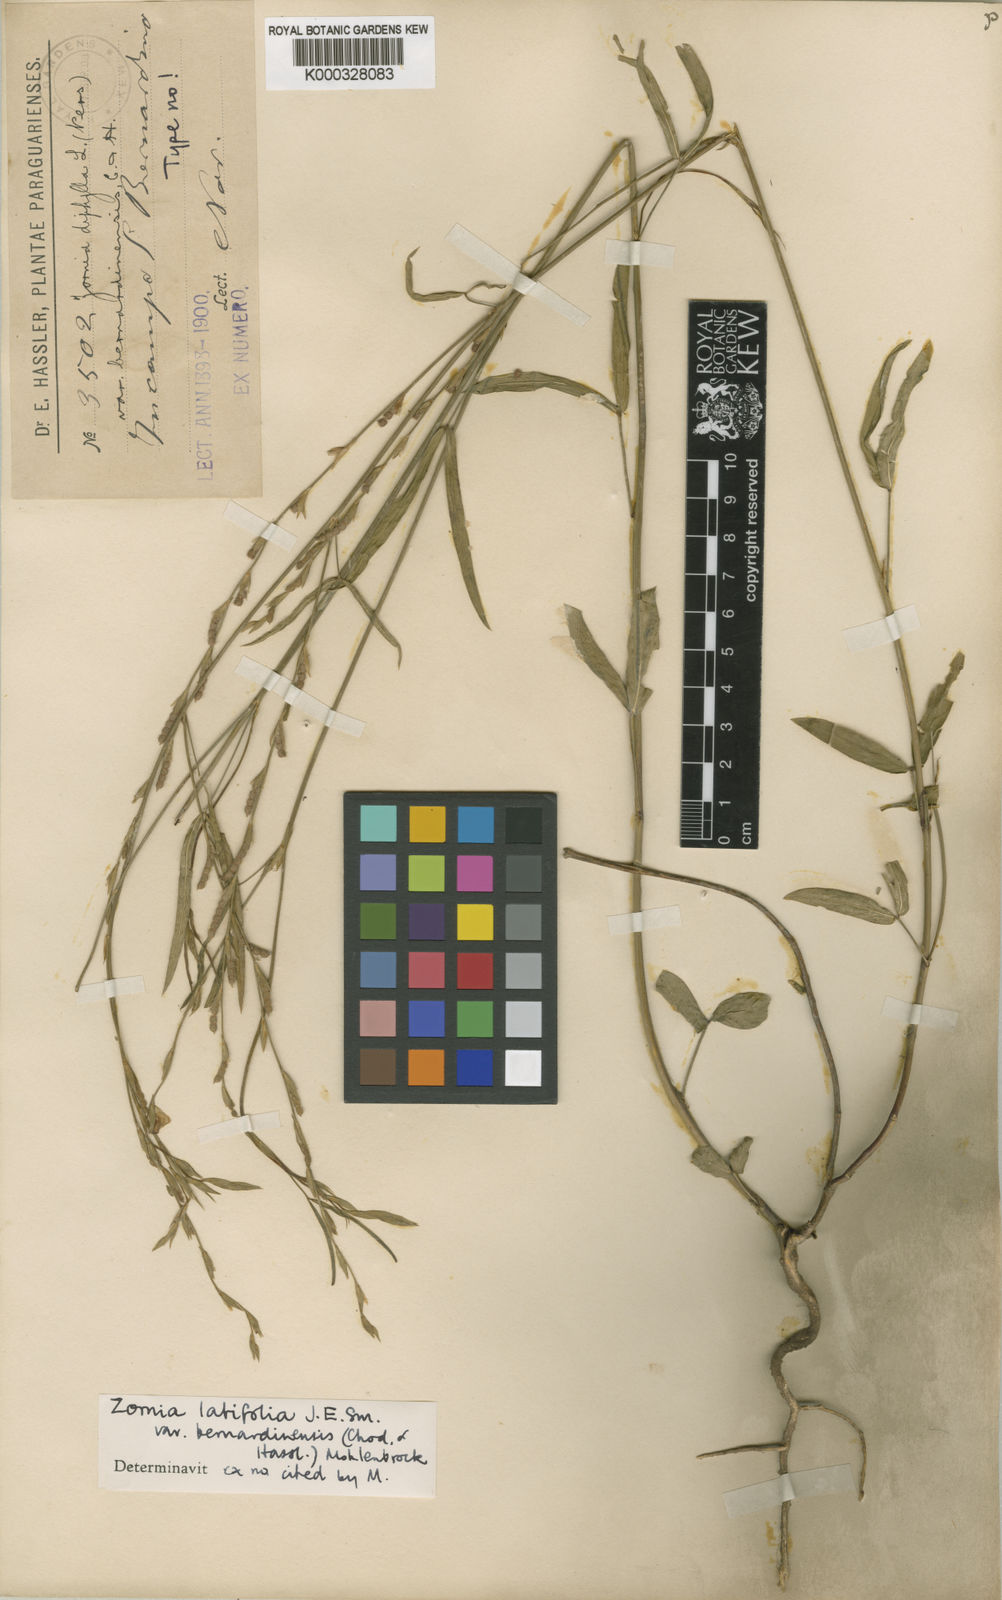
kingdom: Plantae
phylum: Tracheophyta
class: Magnoliopsida
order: Fabales
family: Fabaceae
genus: Zornia
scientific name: Zornia latifolia
